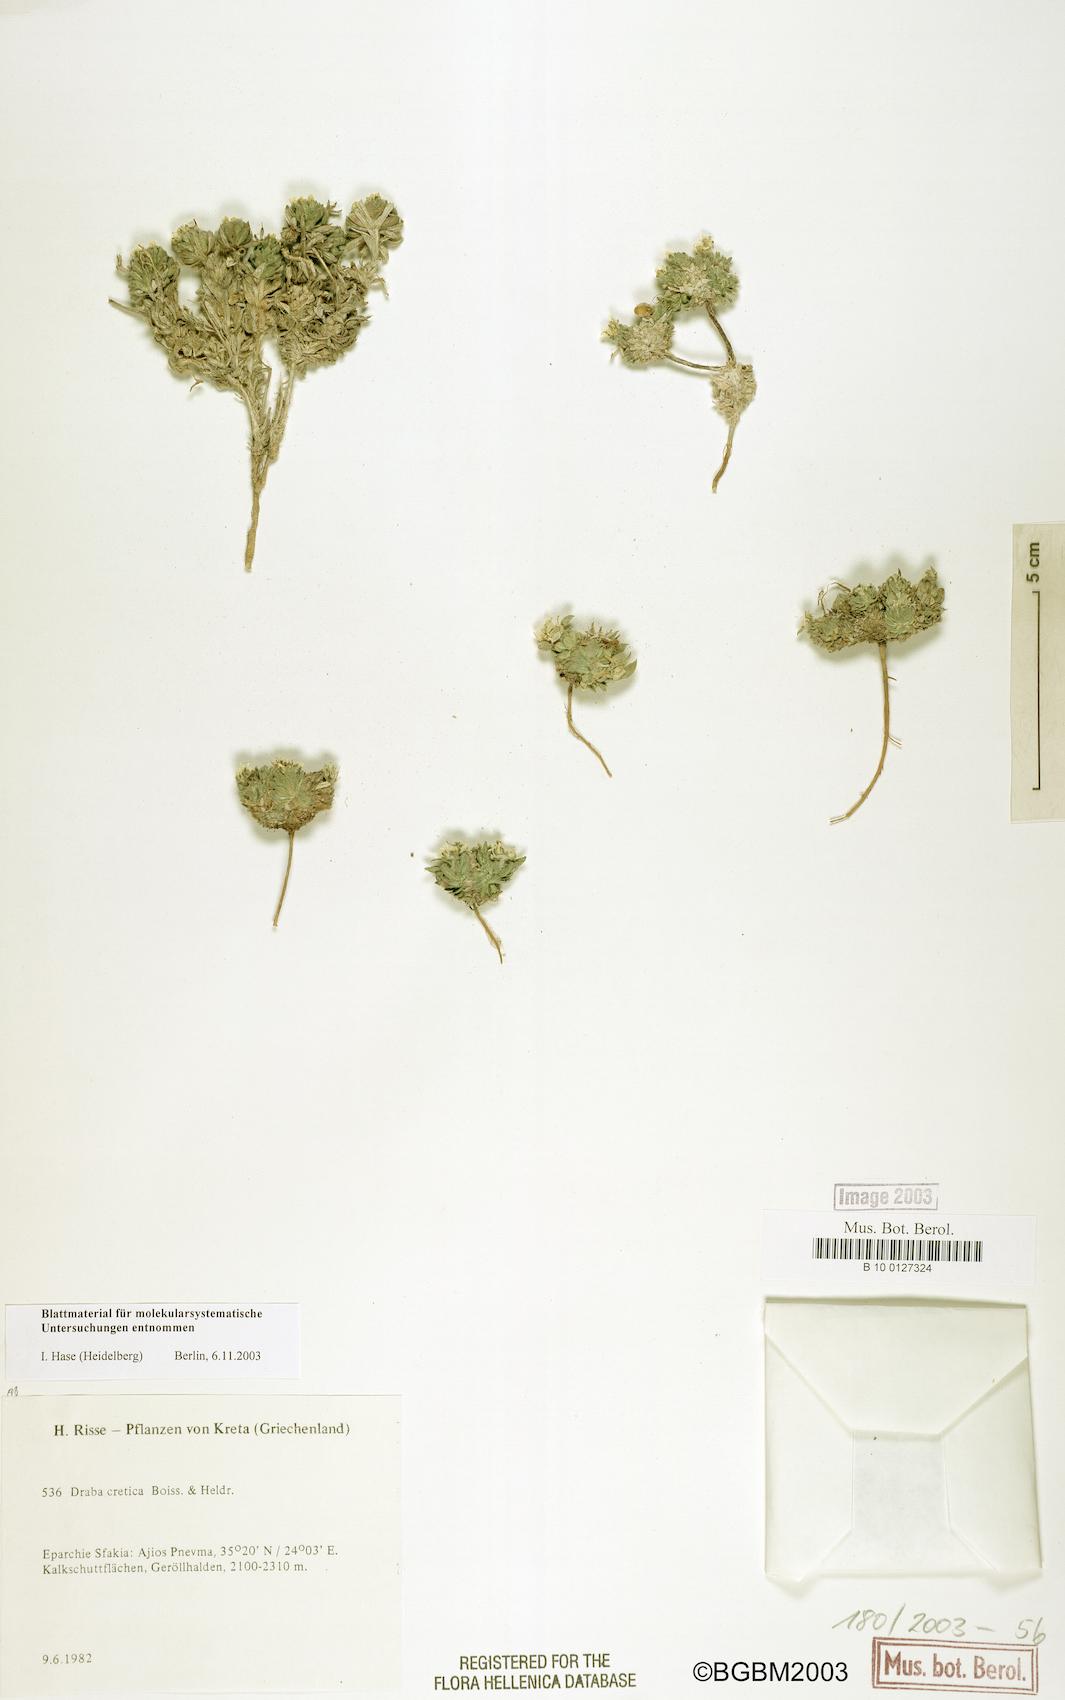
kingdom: Plantae
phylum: Tracheophyta
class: Magnoliopsida
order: Brassicales
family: Brassicaceae
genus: Draba
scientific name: Draba cretica
